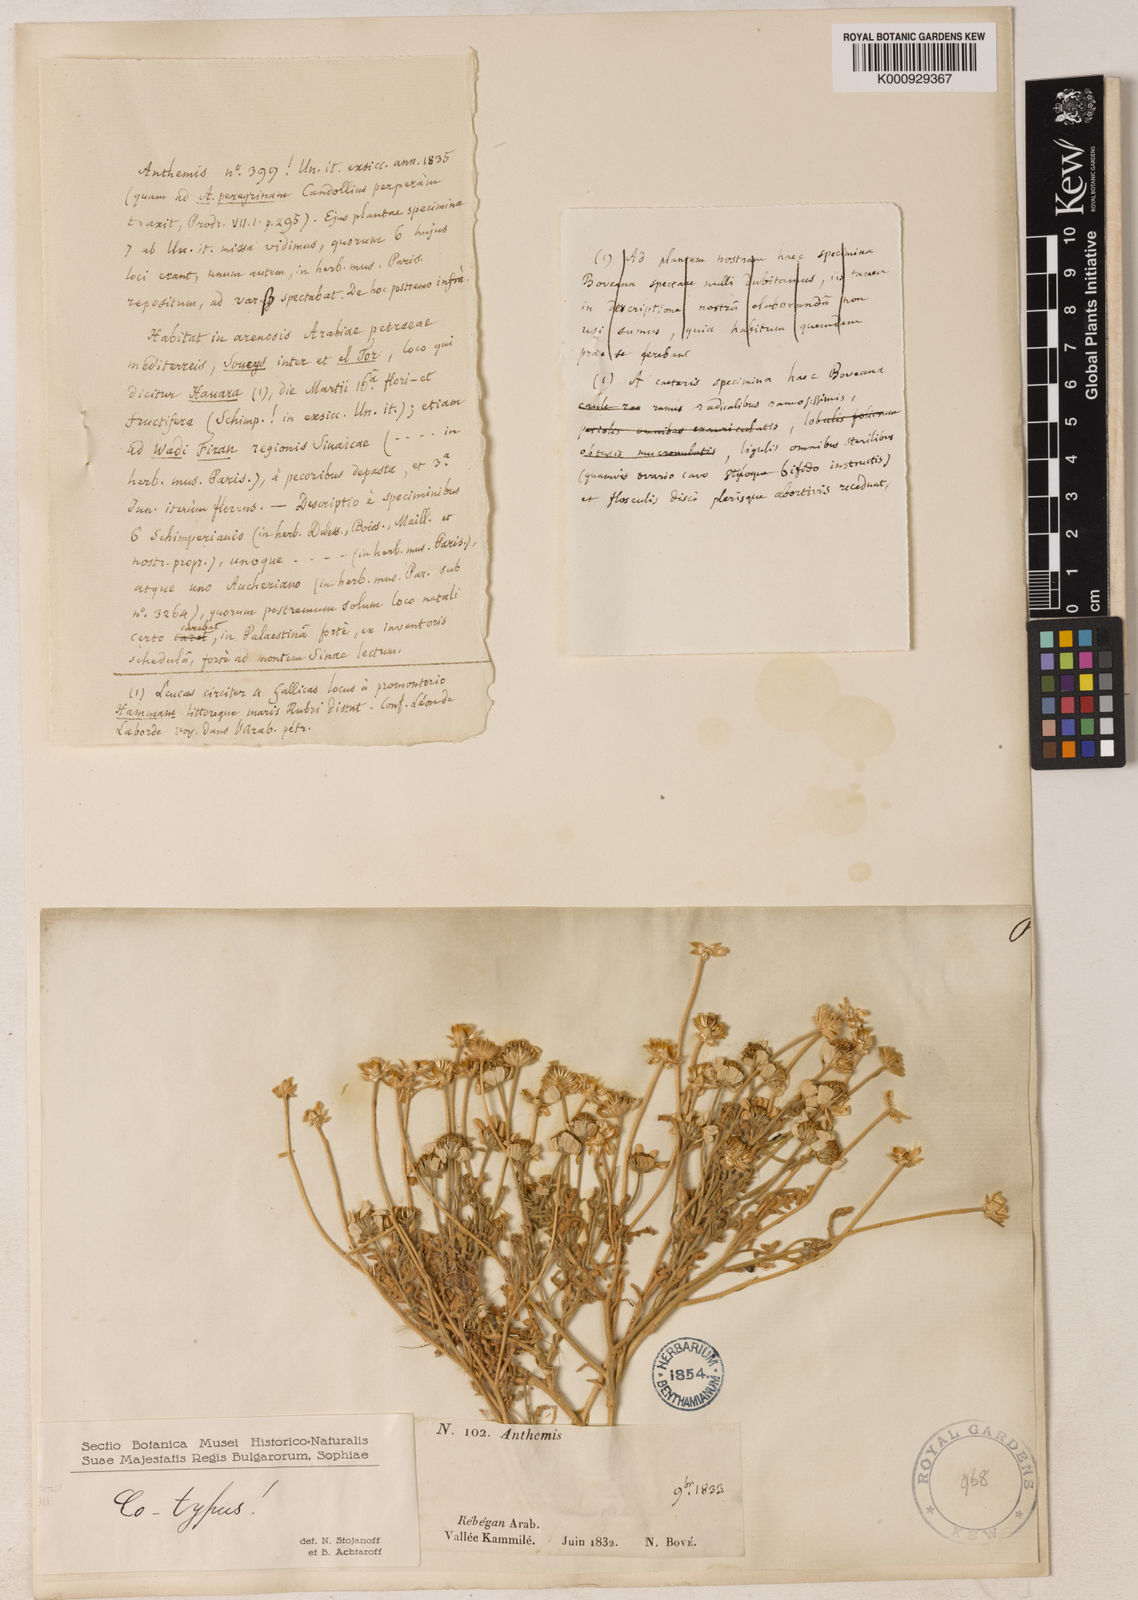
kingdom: Plantae
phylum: Tracheophyta
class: Magnoliopsida
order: Asterales
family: Asteraceae
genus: Anthemis
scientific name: Anthemis melampodina
